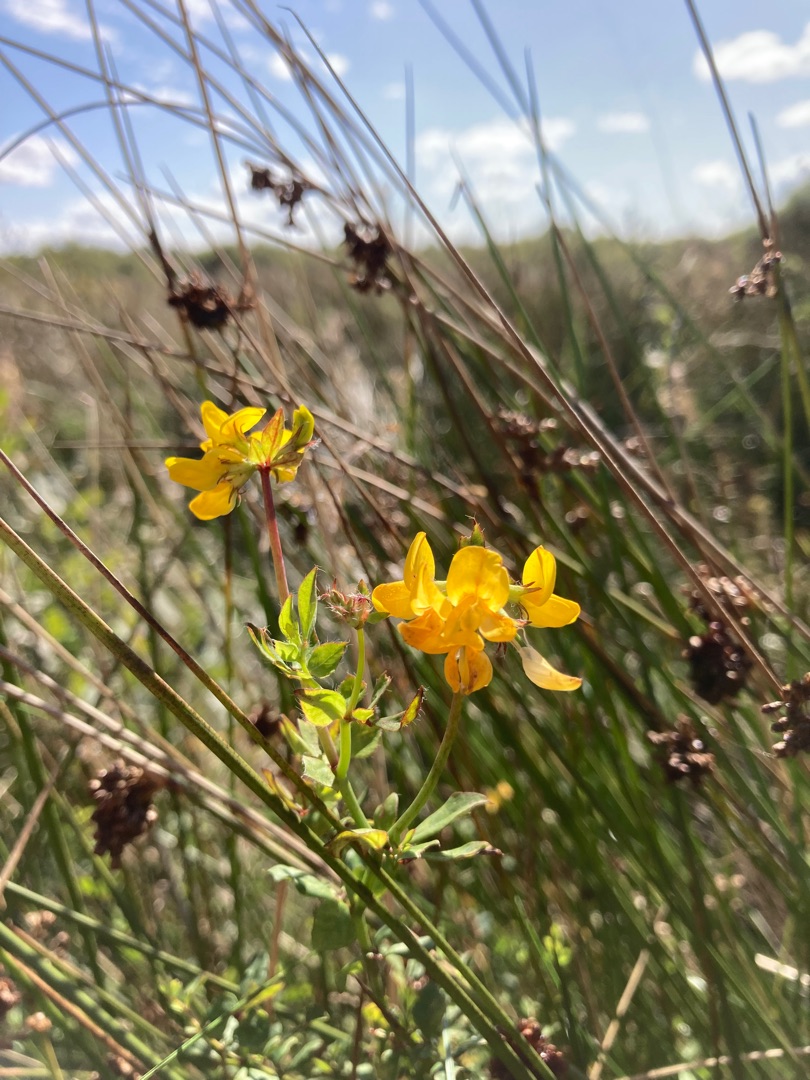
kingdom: Plantae
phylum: Tracheophyta
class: Magnoliopsida
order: Fabales
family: Fabaceae
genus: Lotus
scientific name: Lotus pedunculatus
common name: Sump-kællingetand
